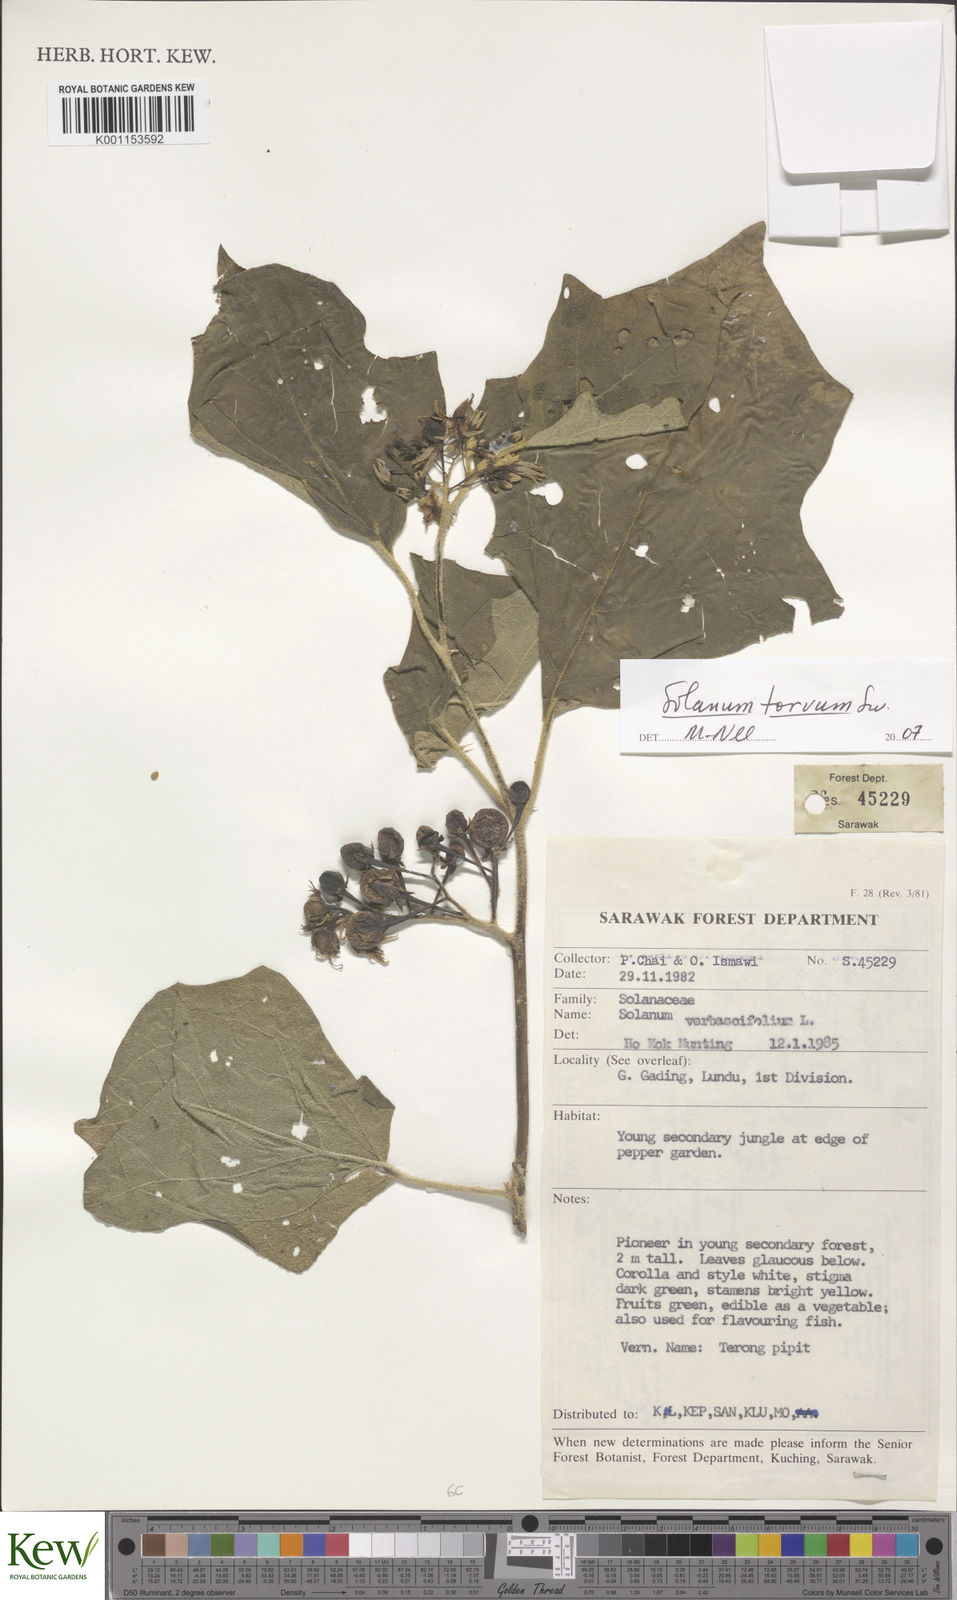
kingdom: Plantae
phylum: Tracheophyta
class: Magnoliopsida
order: Solanales
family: Solanaceae
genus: Solanum
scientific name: Solanum torvum
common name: Turkey berry
